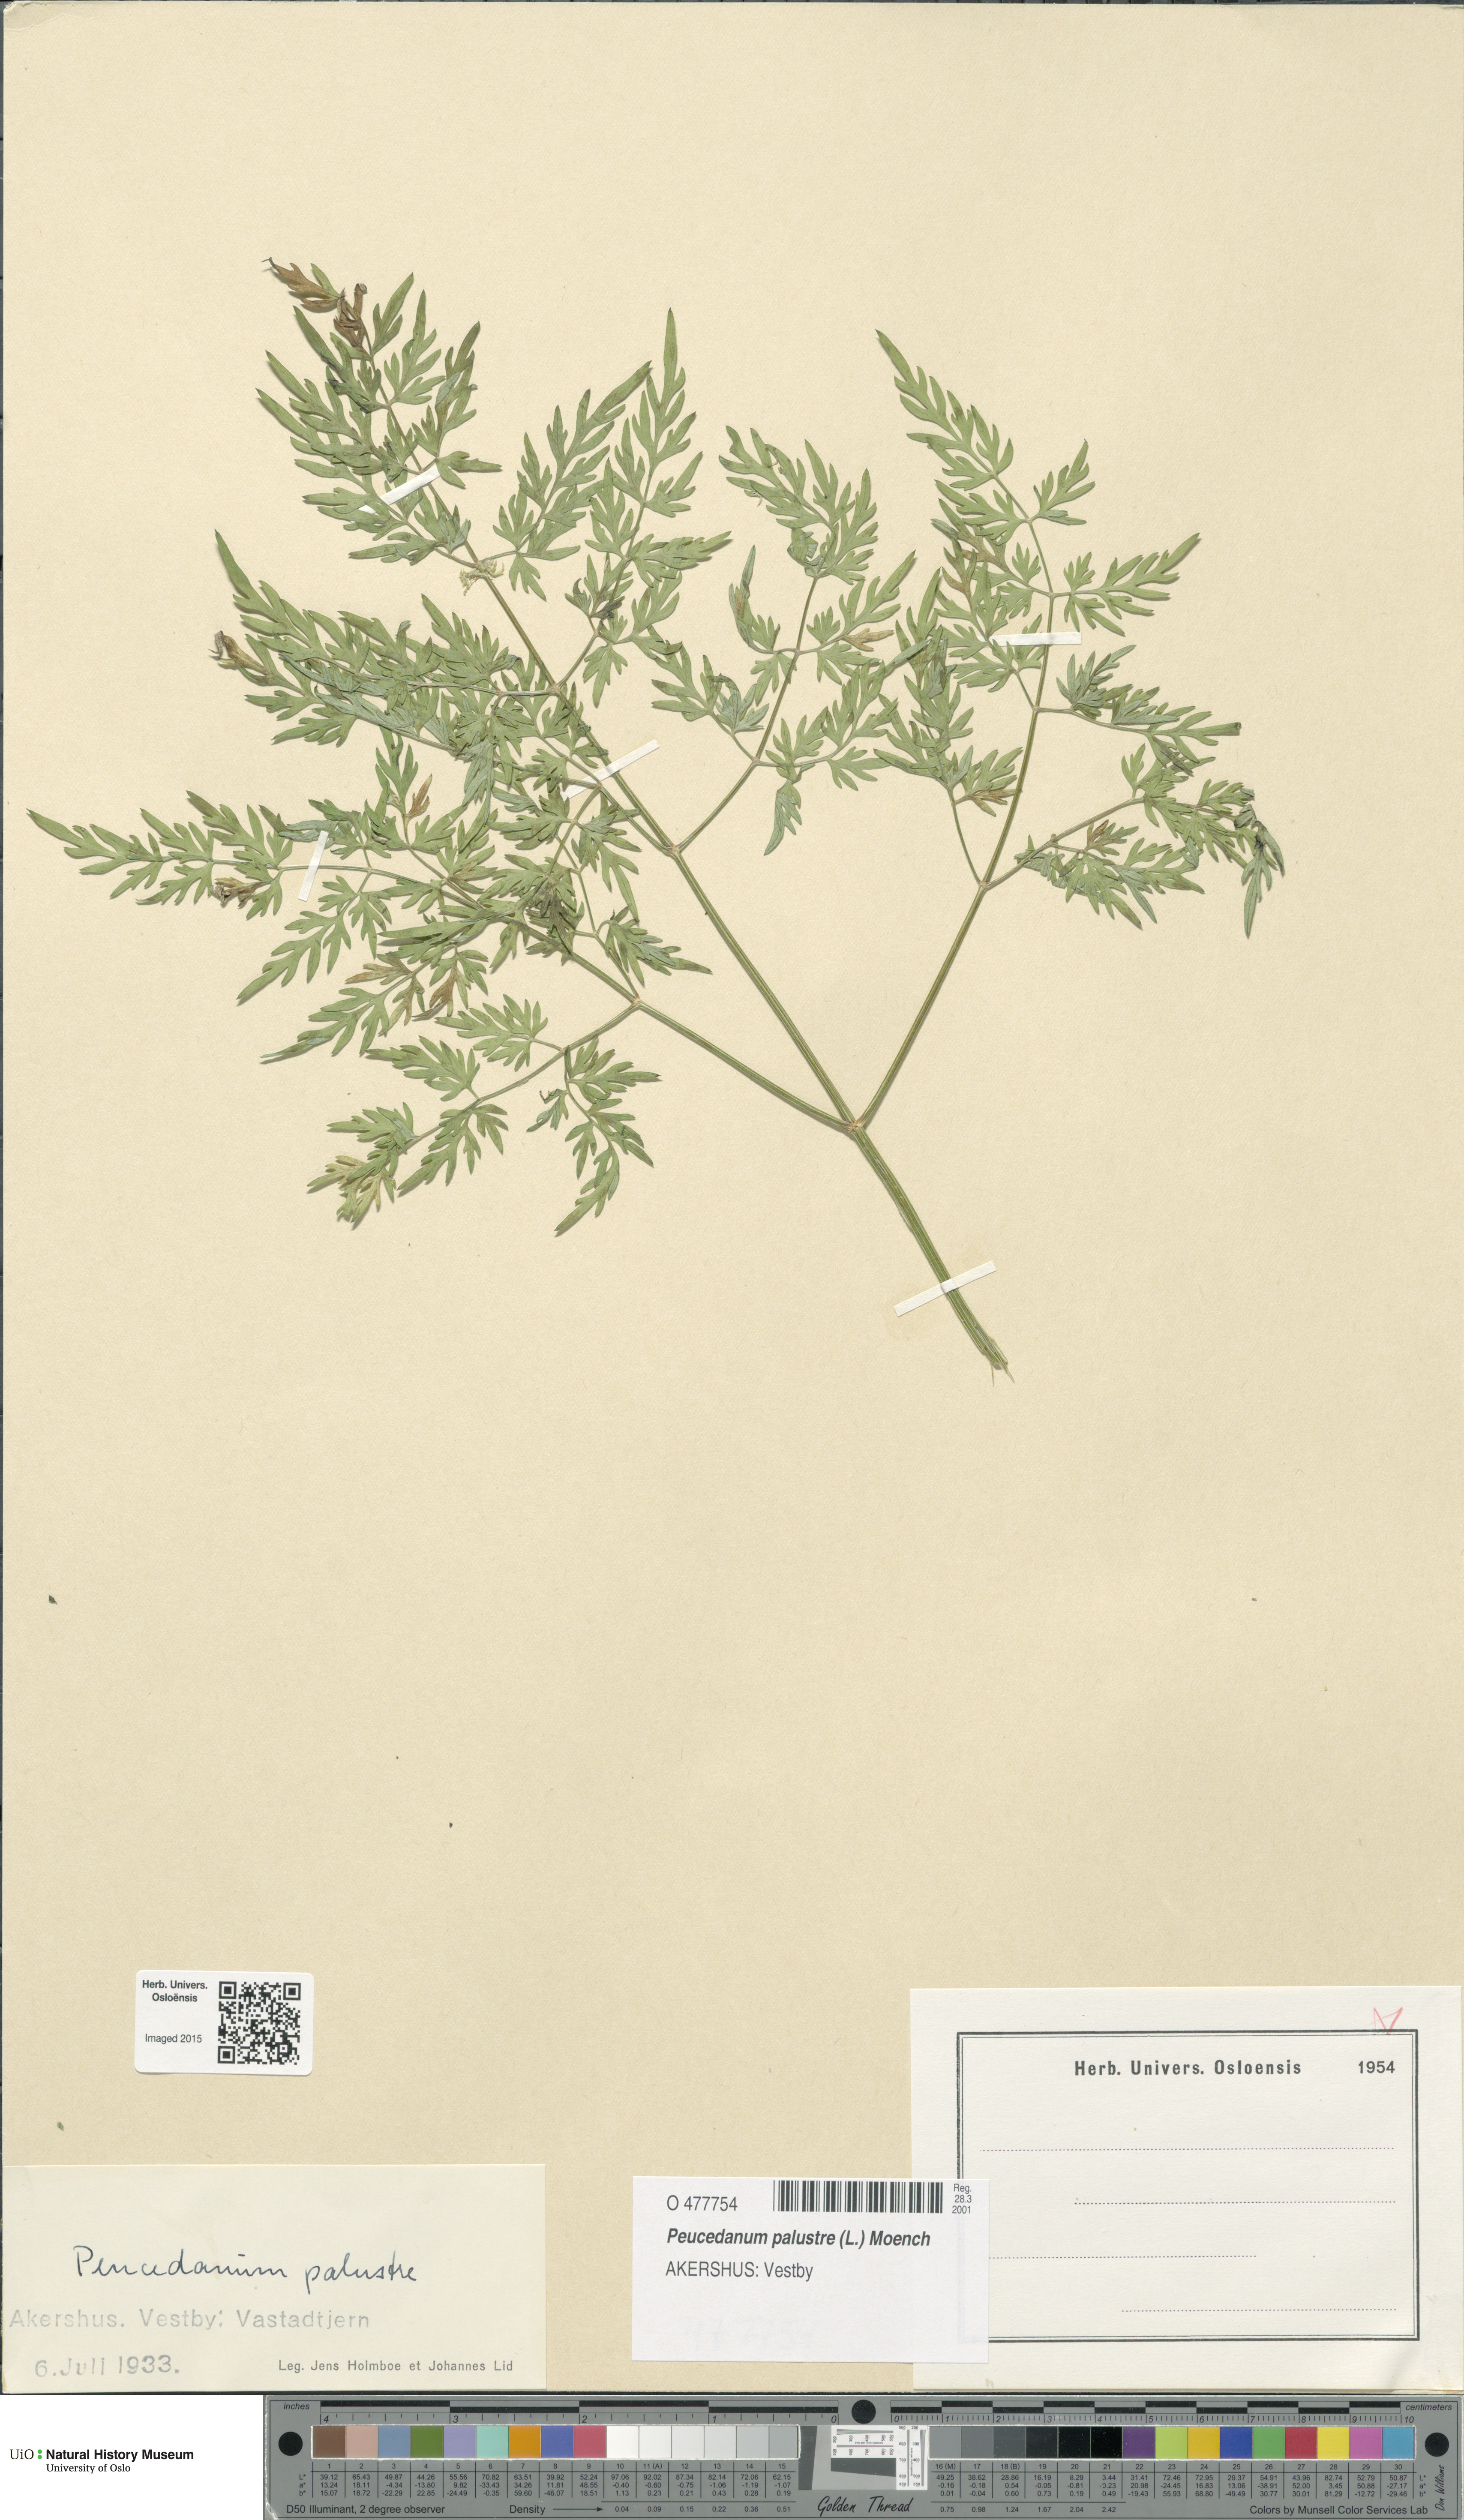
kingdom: Plantae
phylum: Tracheophyta
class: Magnoliopsida
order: Apiales
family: Apiaceae
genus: Thysselinum
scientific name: Thysselinum palustre
